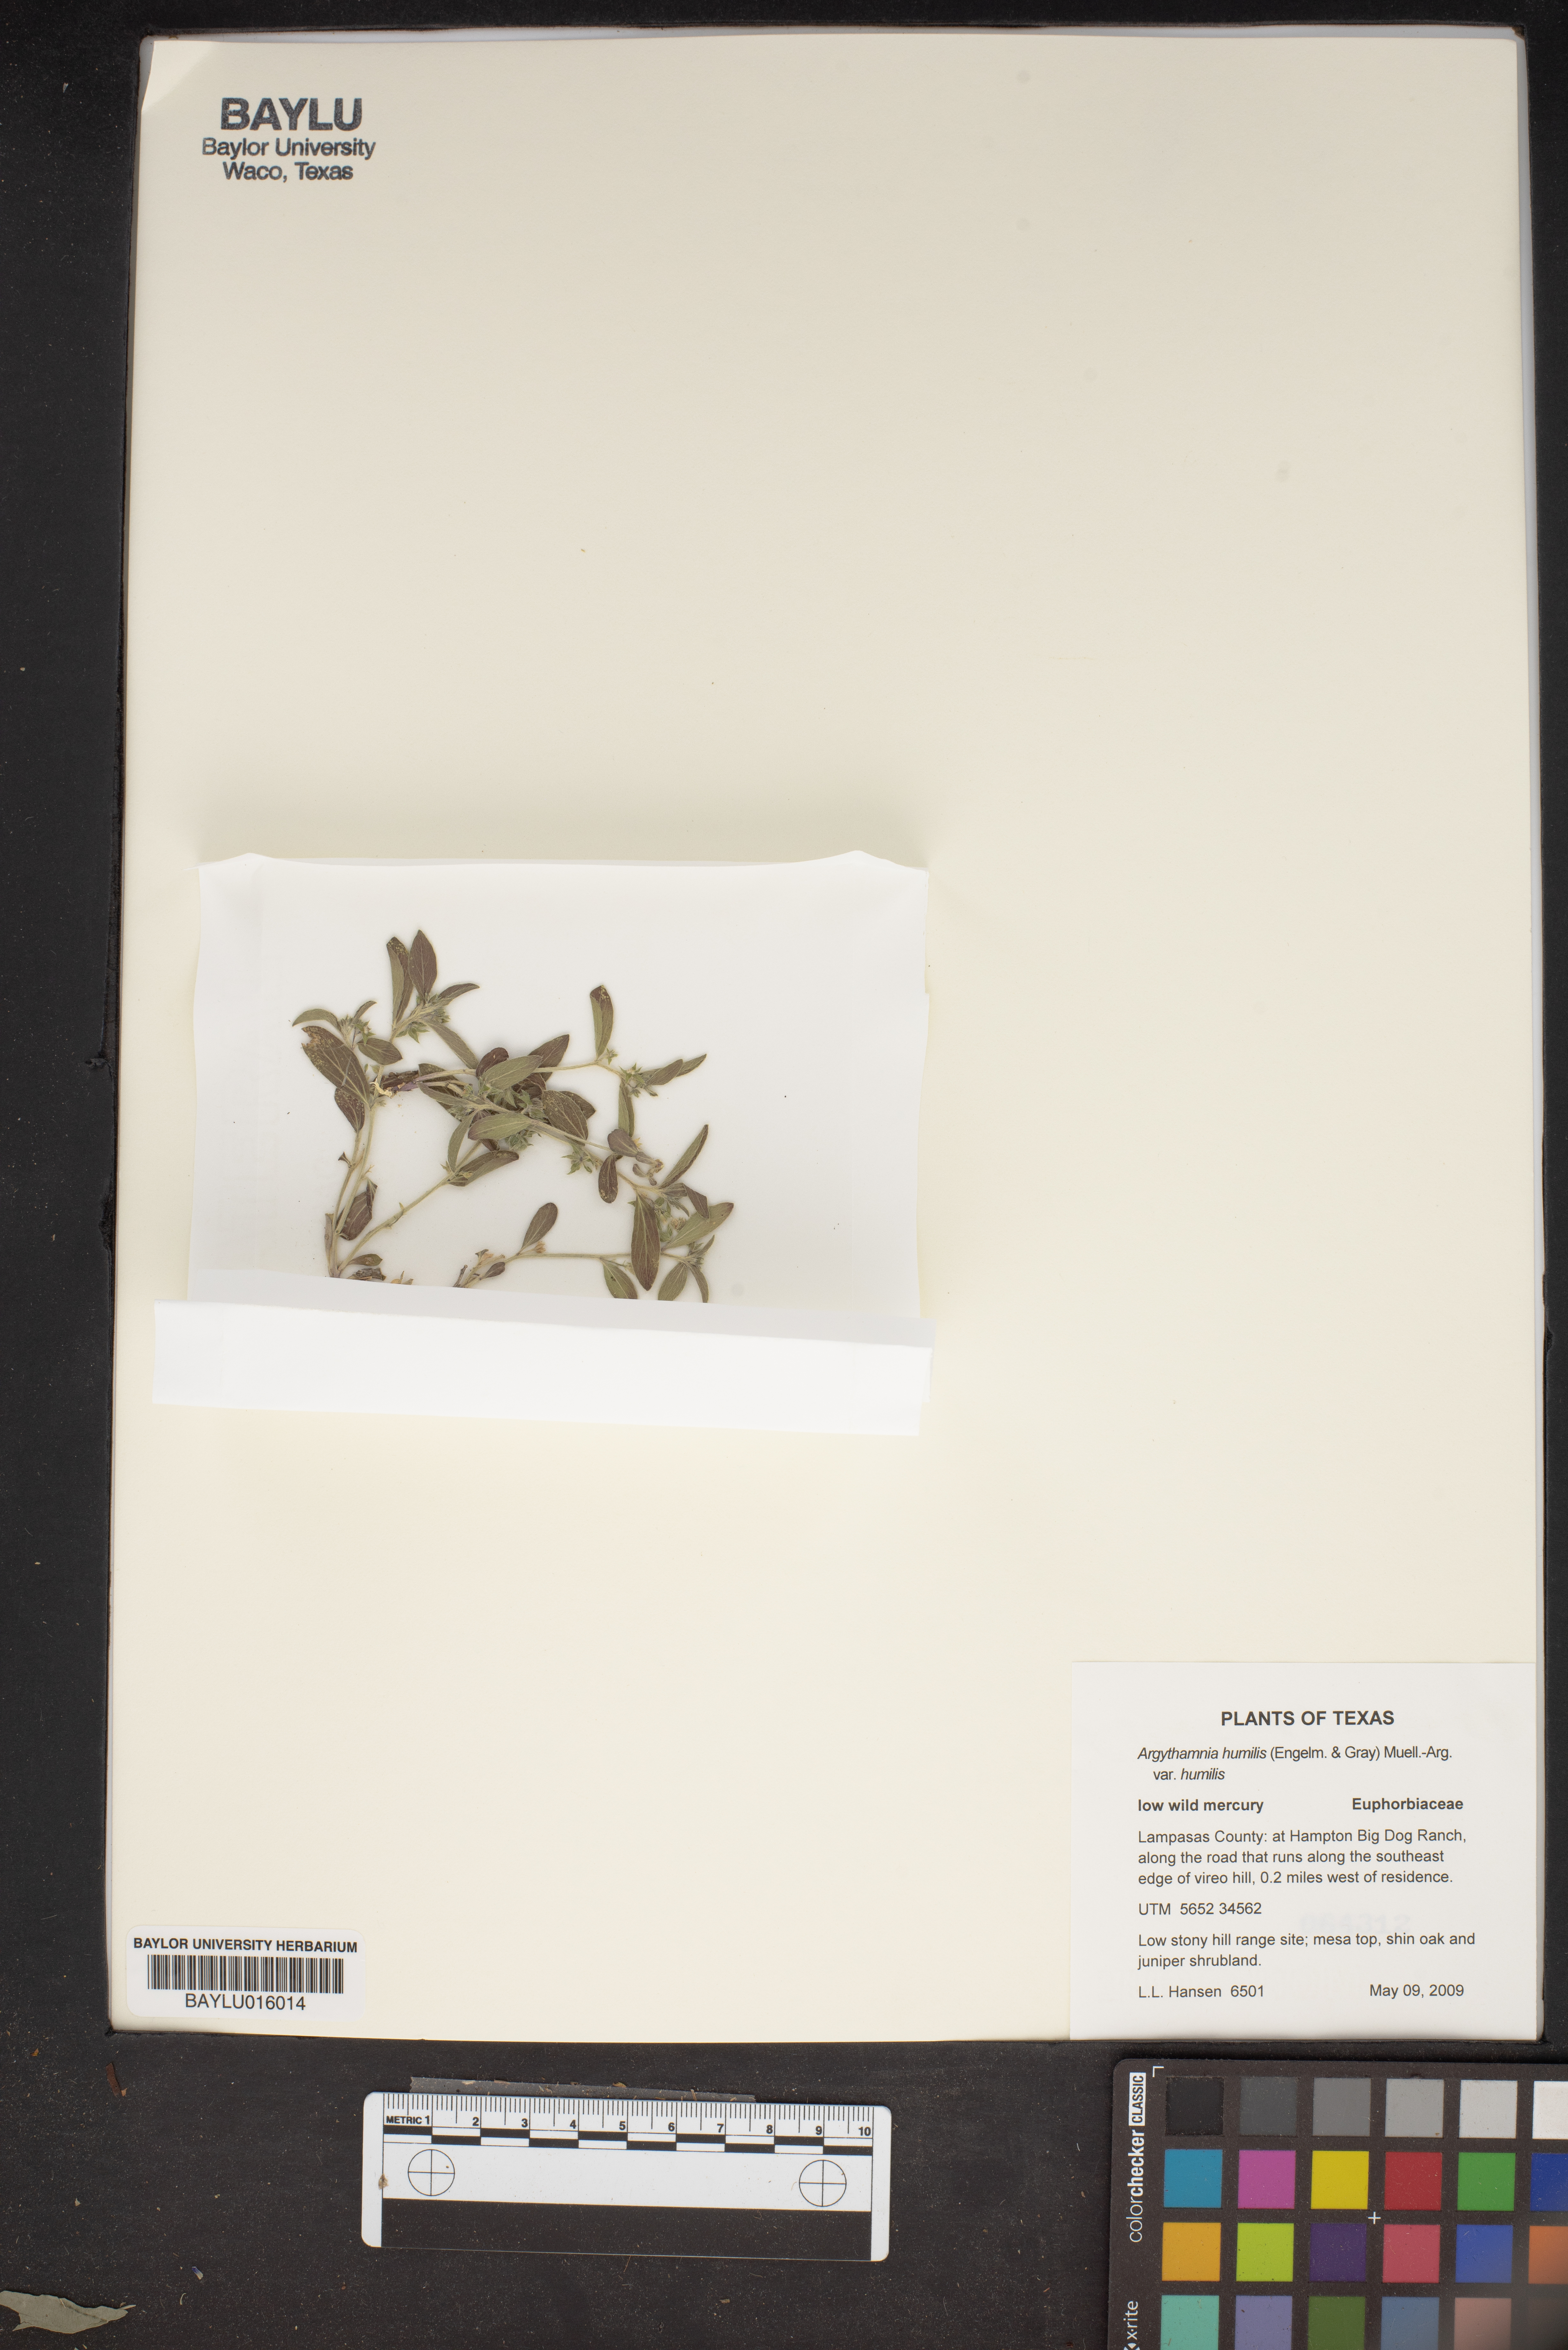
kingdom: Plantae
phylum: Tracheophyta
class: Magnoliopsida
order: Malpighiales
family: Euphorbiaceae
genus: Ditaxis
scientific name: Ditaxis humilis
